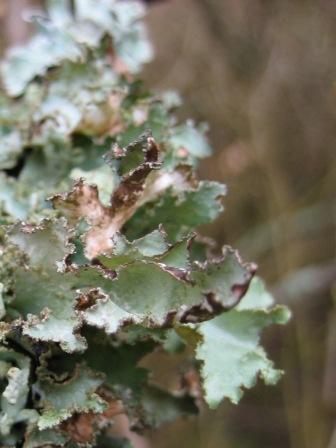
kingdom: Fungi
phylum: Ascomycota
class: Lecanoromycetes
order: Lecanorales
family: Parmeliaceae
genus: Platismatia
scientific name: Platismatia glauca
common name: blågrå papirlav
